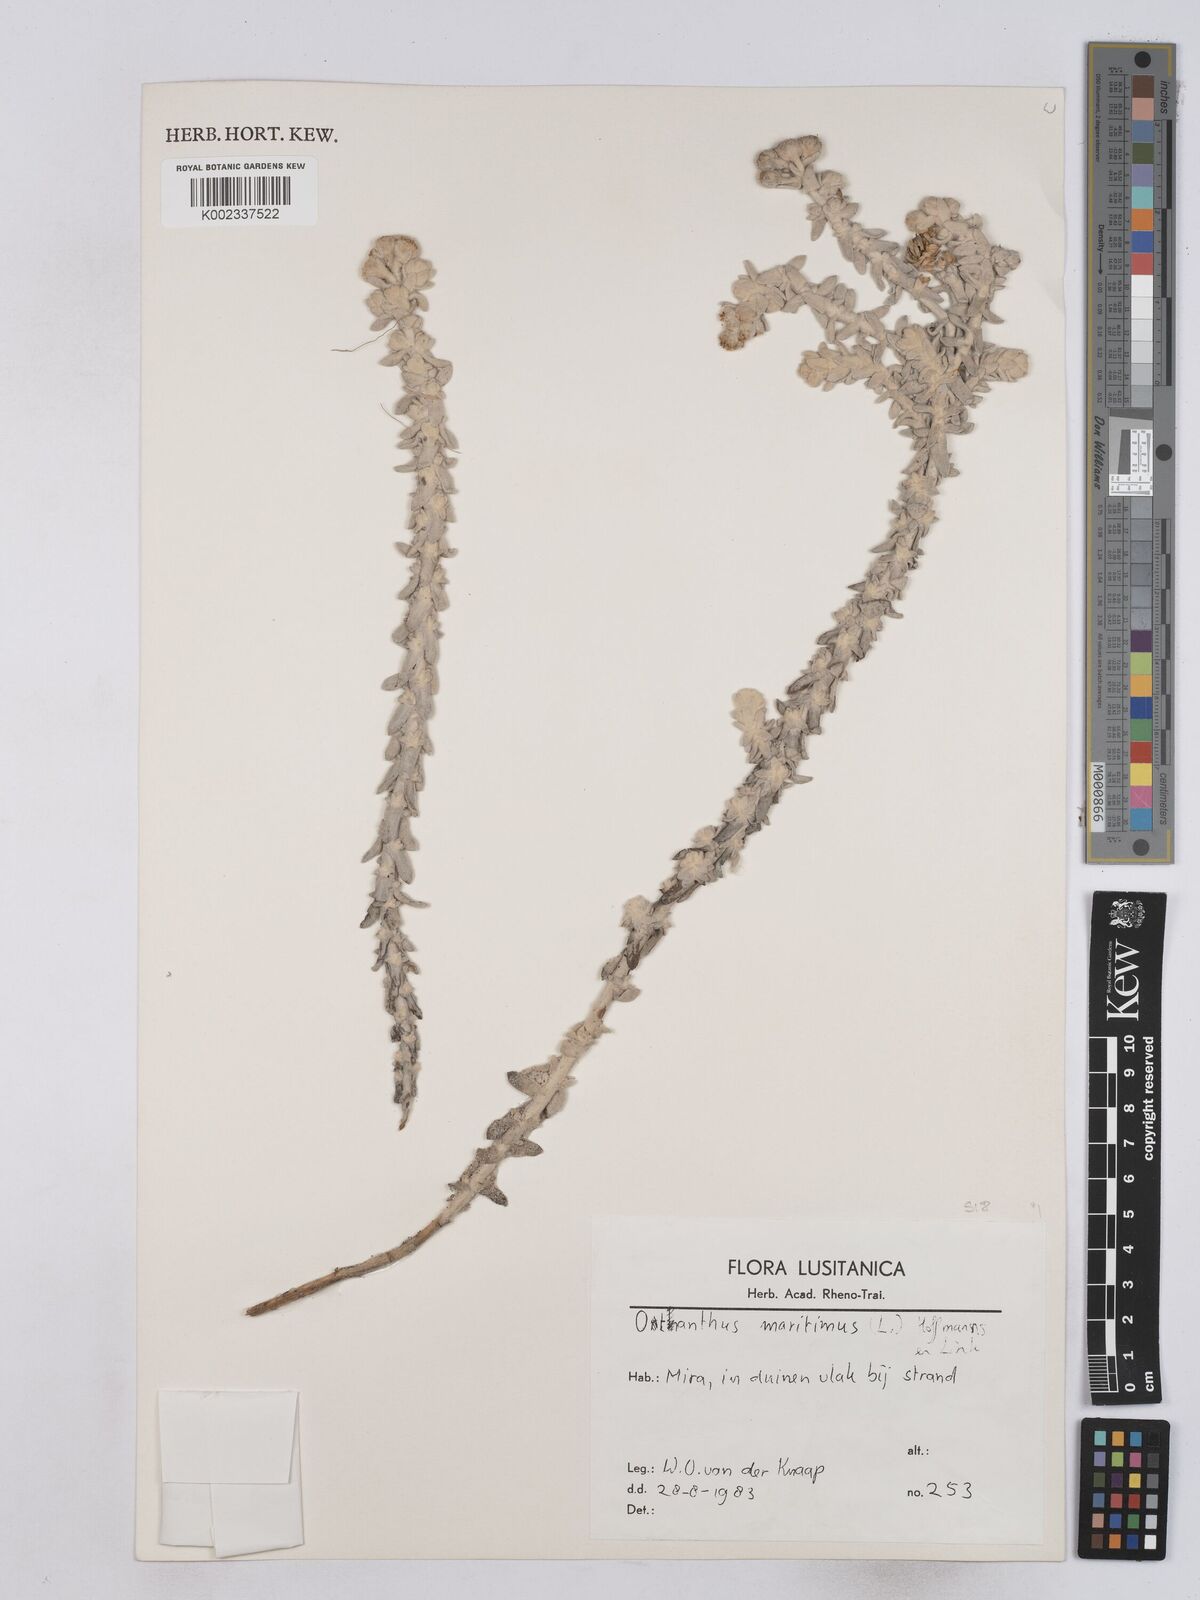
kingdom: Plantae
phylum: Tracheophyta
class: Magnoliopsida
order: Asterales
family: Asteraceae
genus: Achillea
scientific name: Achillea maritima
